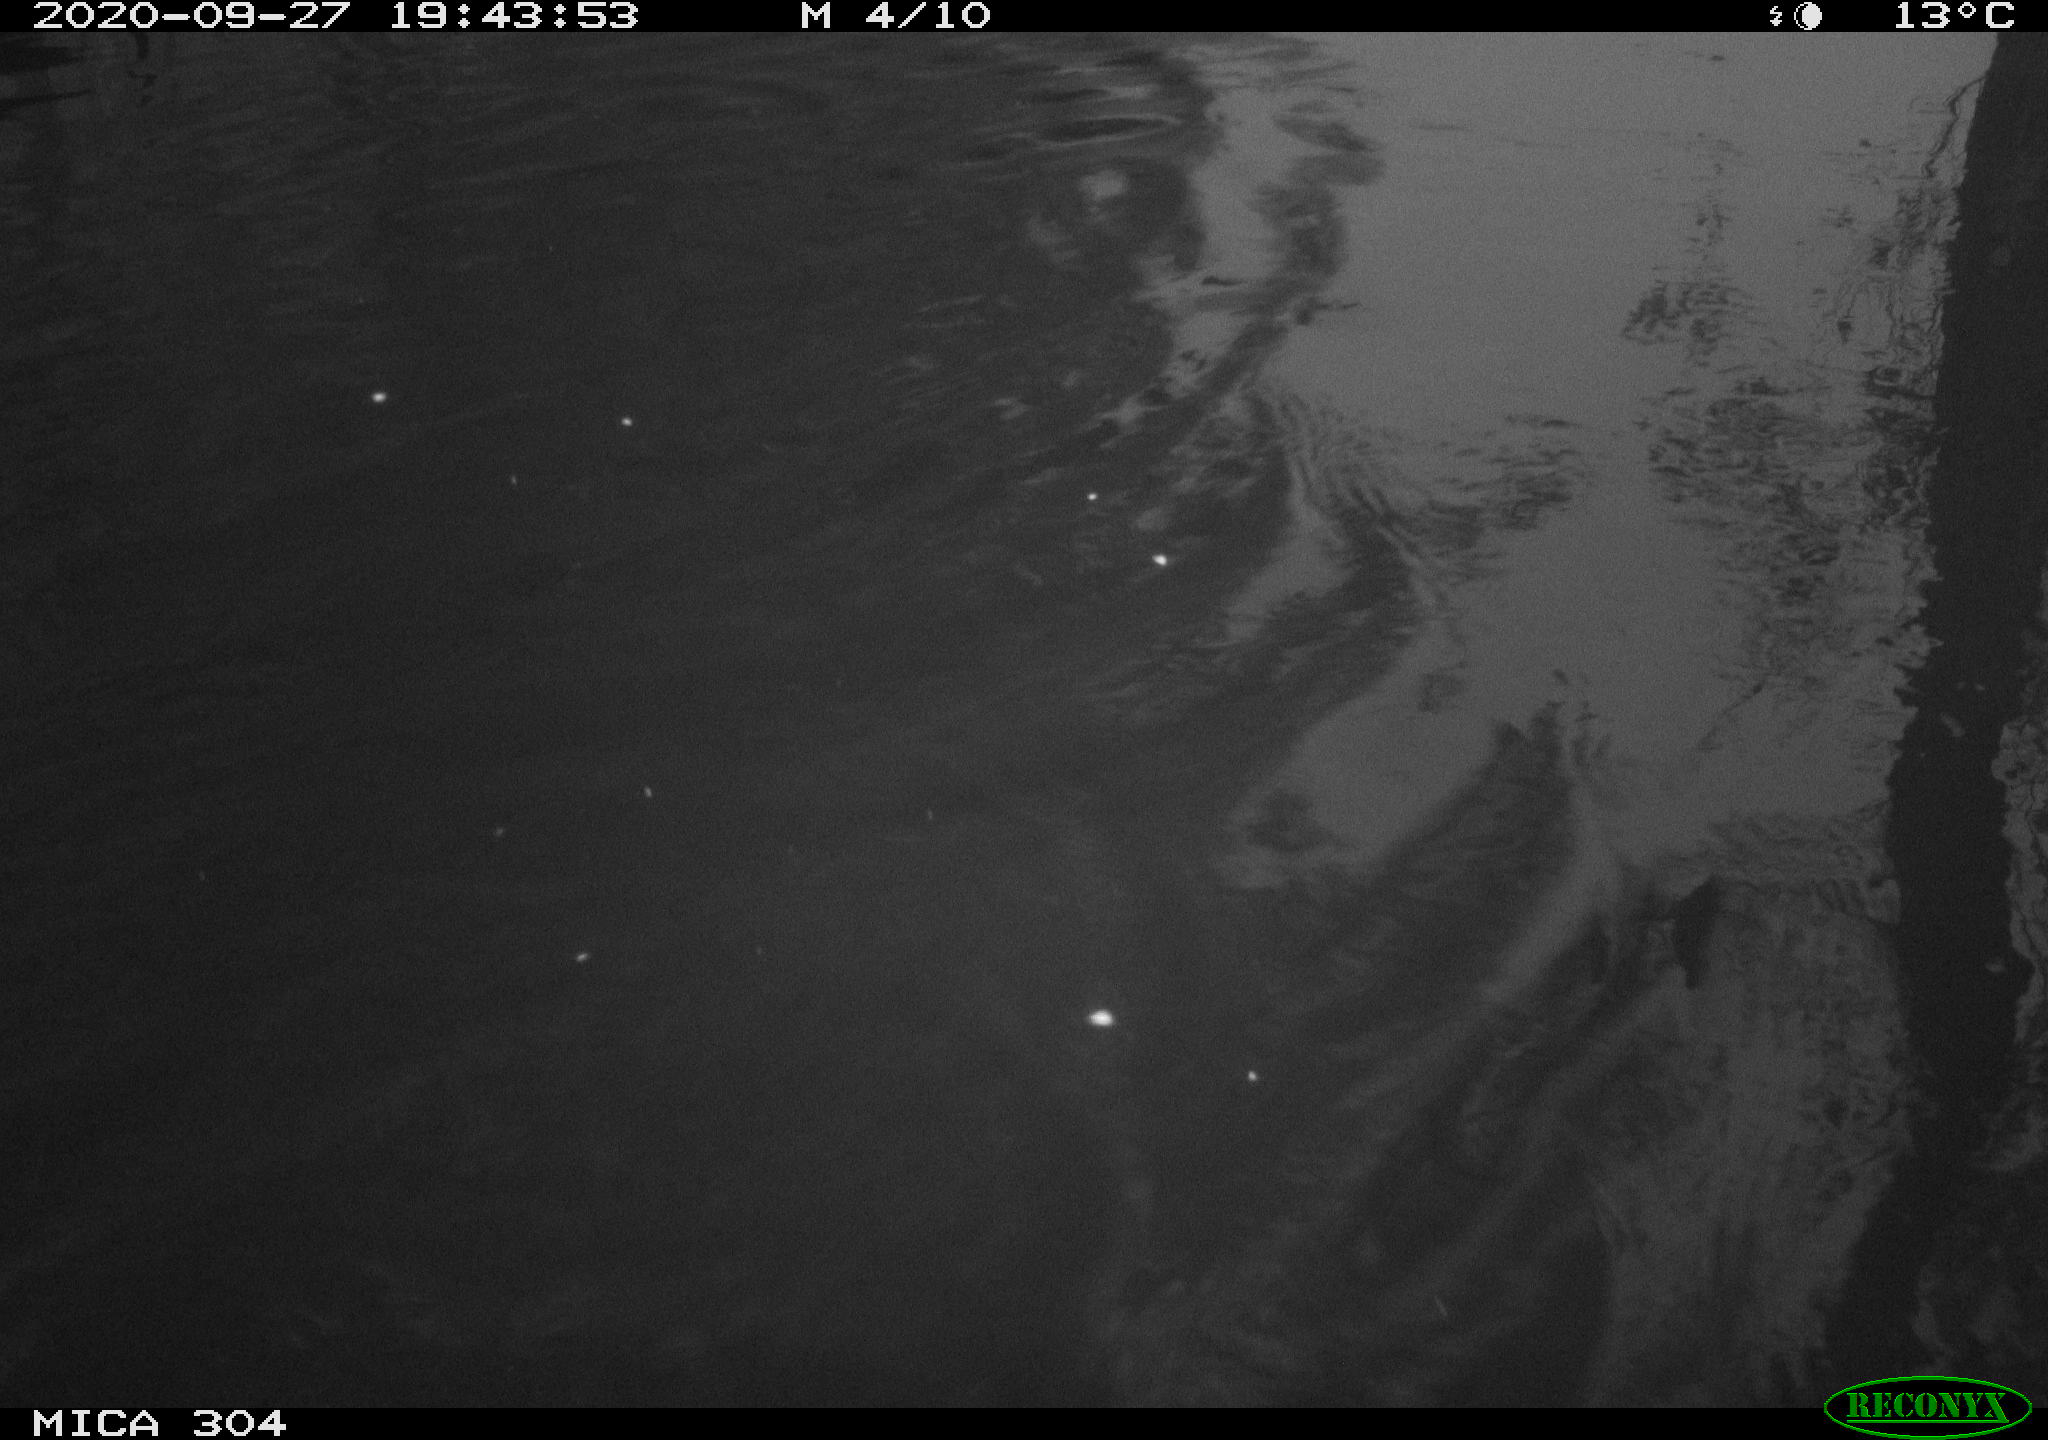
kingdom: Animalia
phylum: Chordata
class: Mammalia
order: Rodentia
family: Cricetidae
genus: Ondatra
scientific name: Ondatra zibethicus
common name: Muskrat
